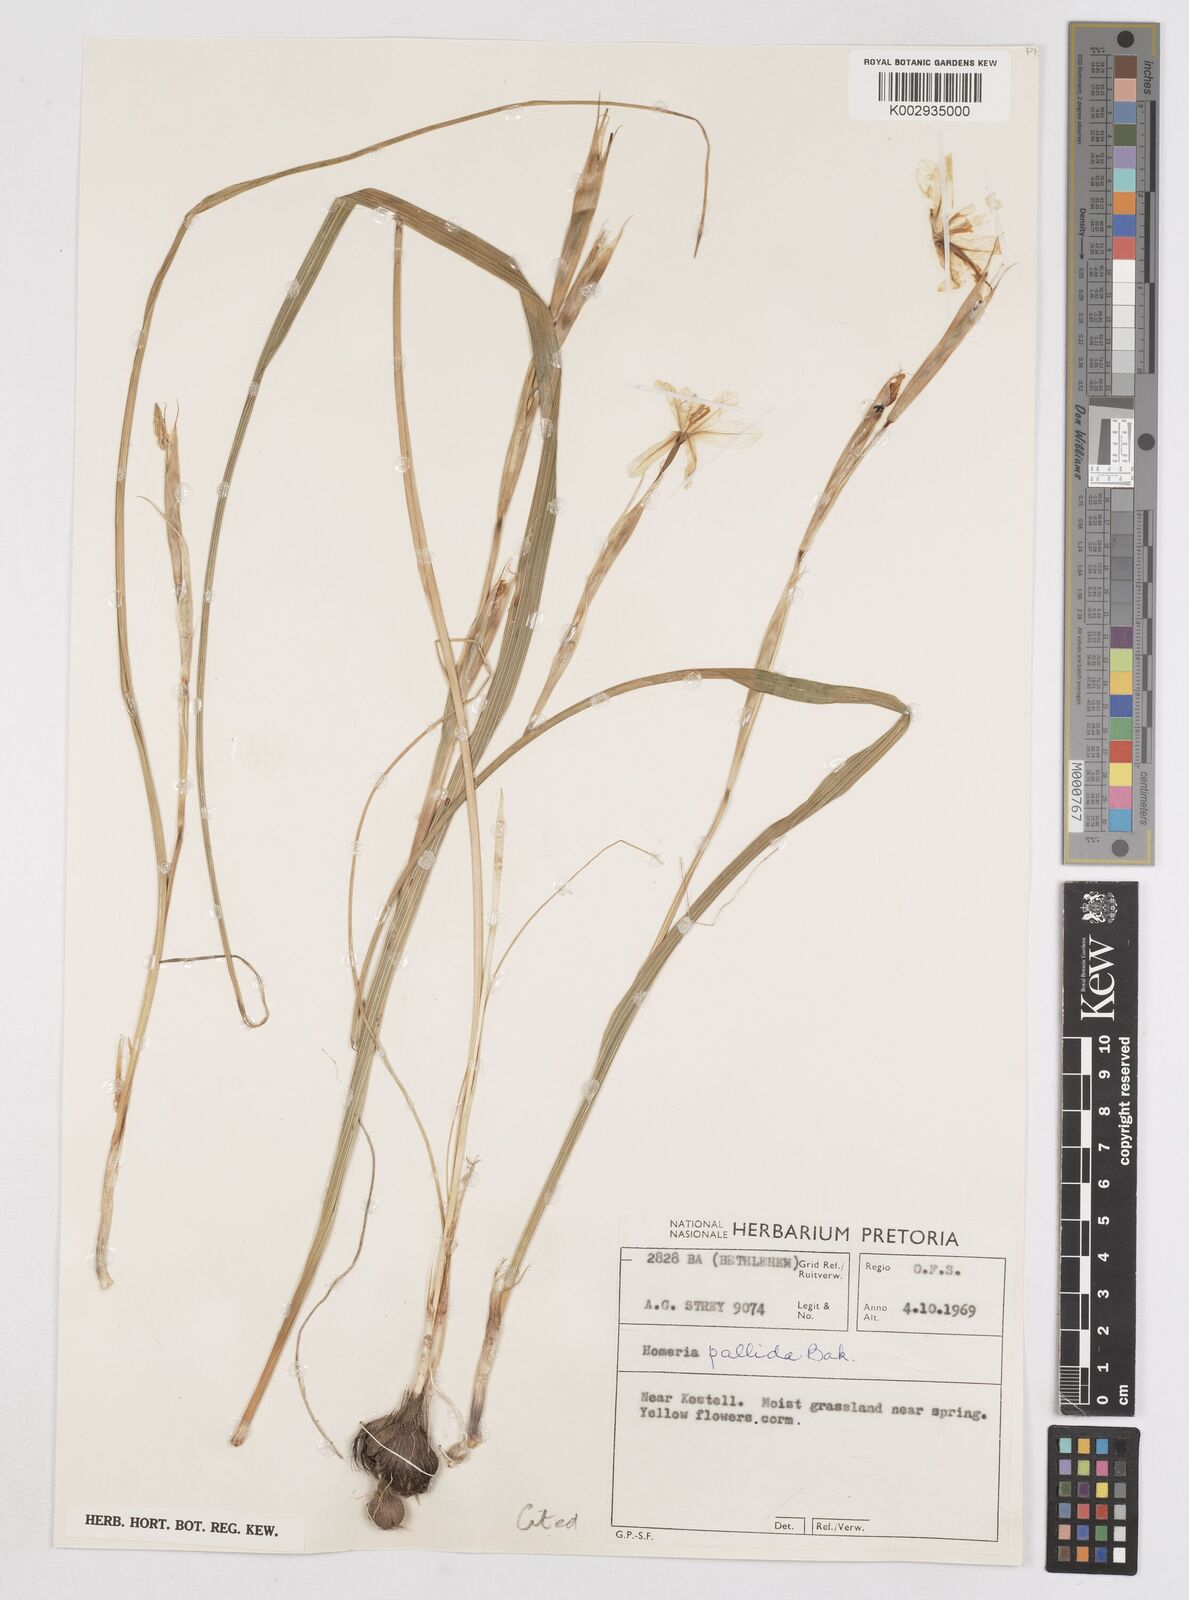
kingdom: Plantae
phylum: Tracheophyta
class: Liliopsida
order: Asparagales
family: Iridaceae
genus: Moraea
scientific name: Moraea pallida
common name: Yellow tulp
